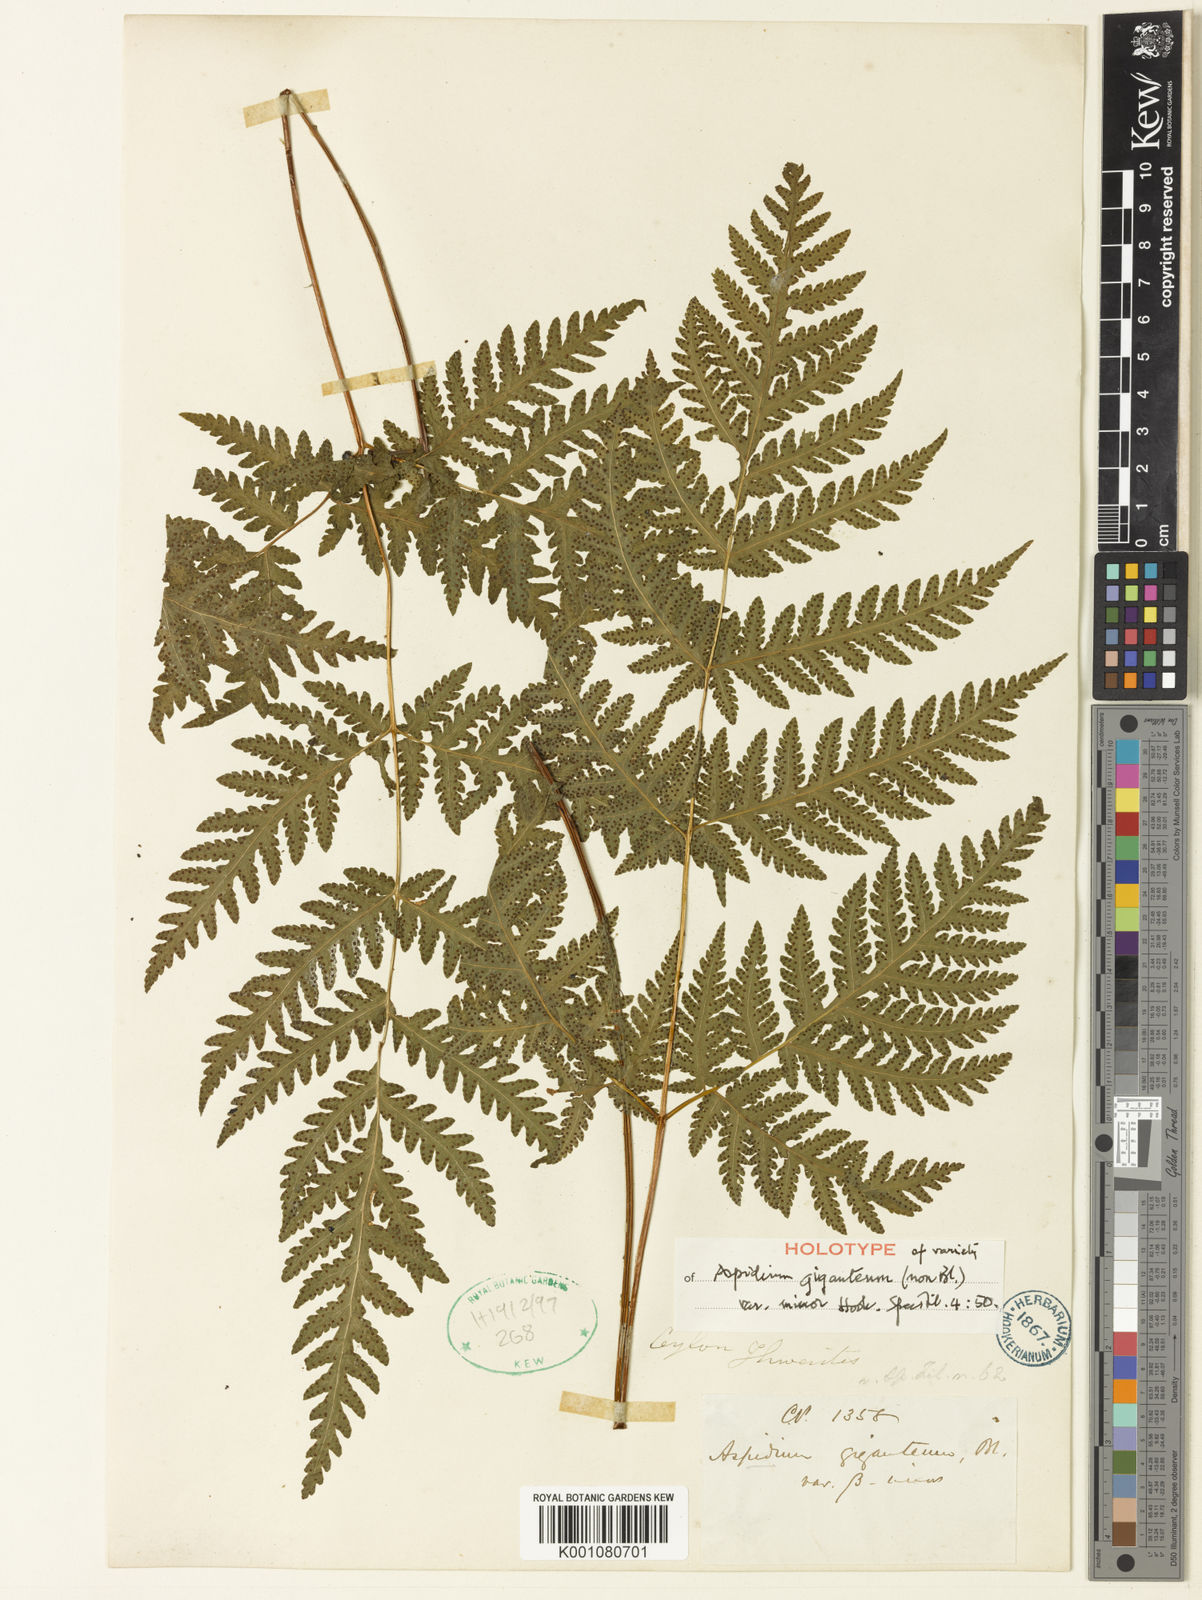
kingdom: Plantae
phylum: Tracheophyta
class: Polypodiopsida
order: Polypodiales
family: Tectariaceae
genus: Tectaria
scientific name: Tectaria membranacea
